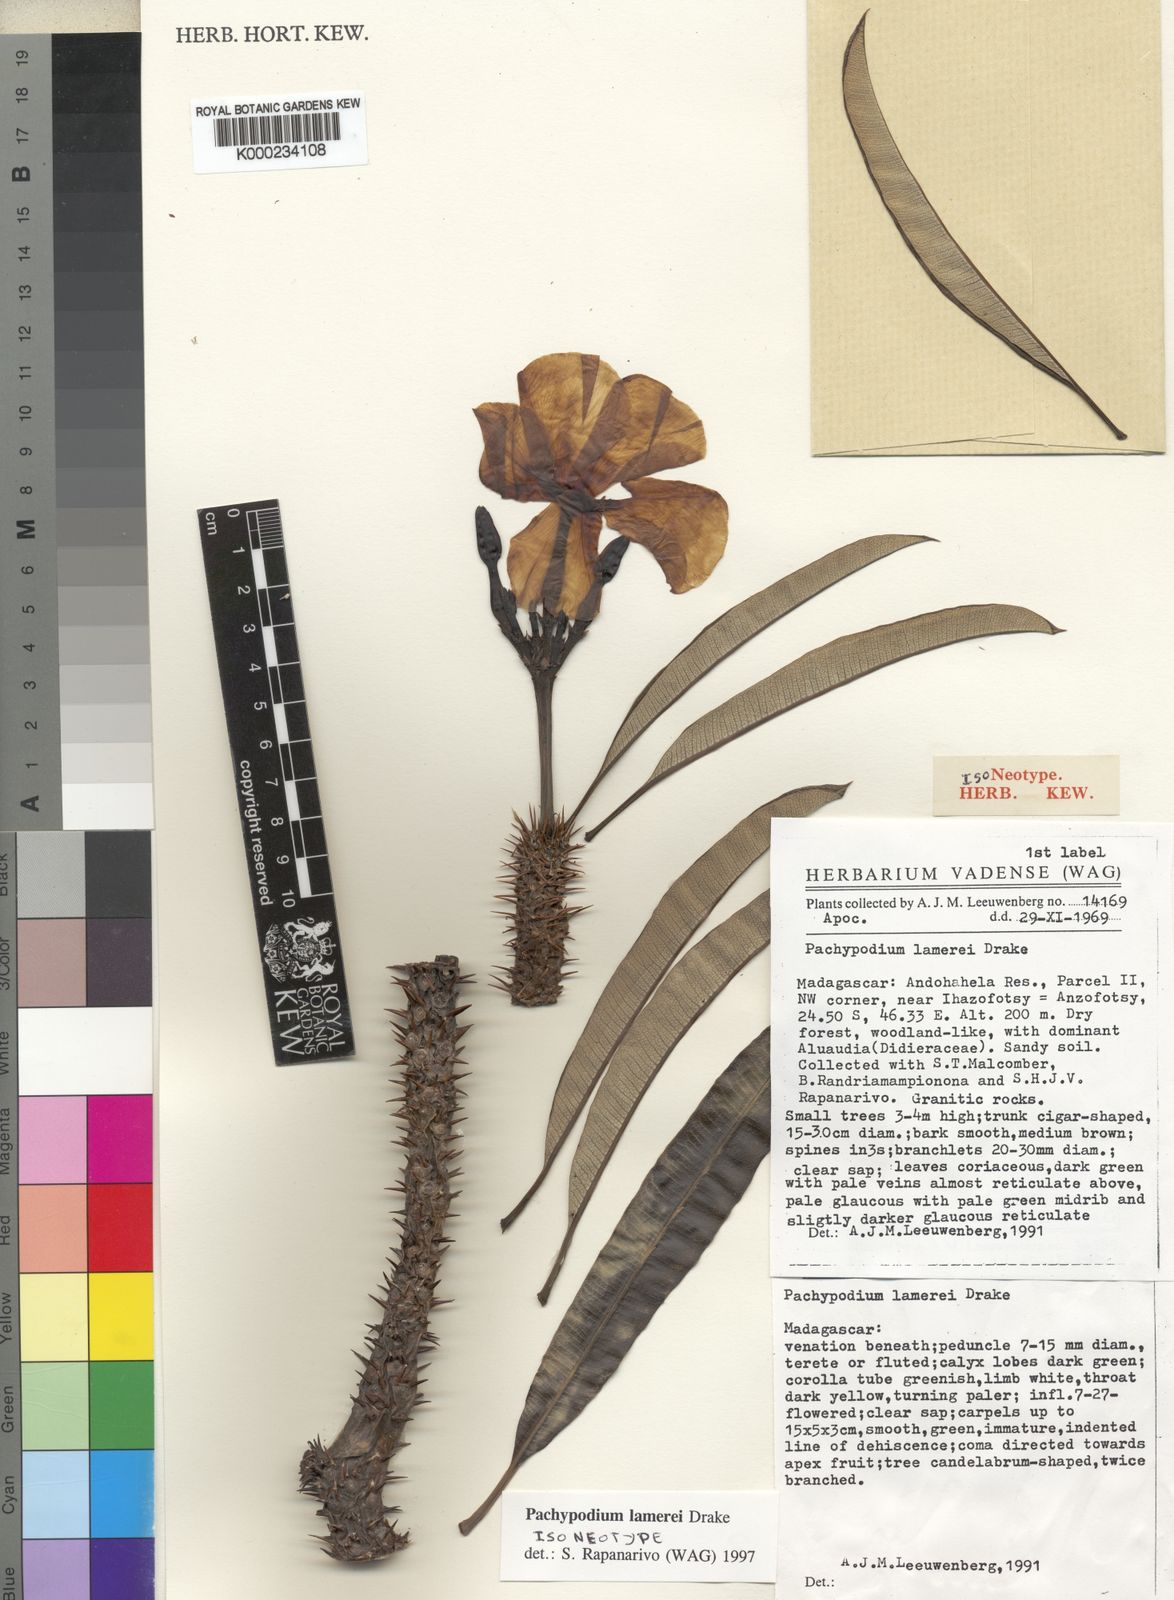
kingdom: Plantae
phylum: Tracheophyta
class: Magnoliopsida
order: Gentianales
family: Apocynaceae
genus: Pachypodium
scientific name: Pachypodium lamerei
